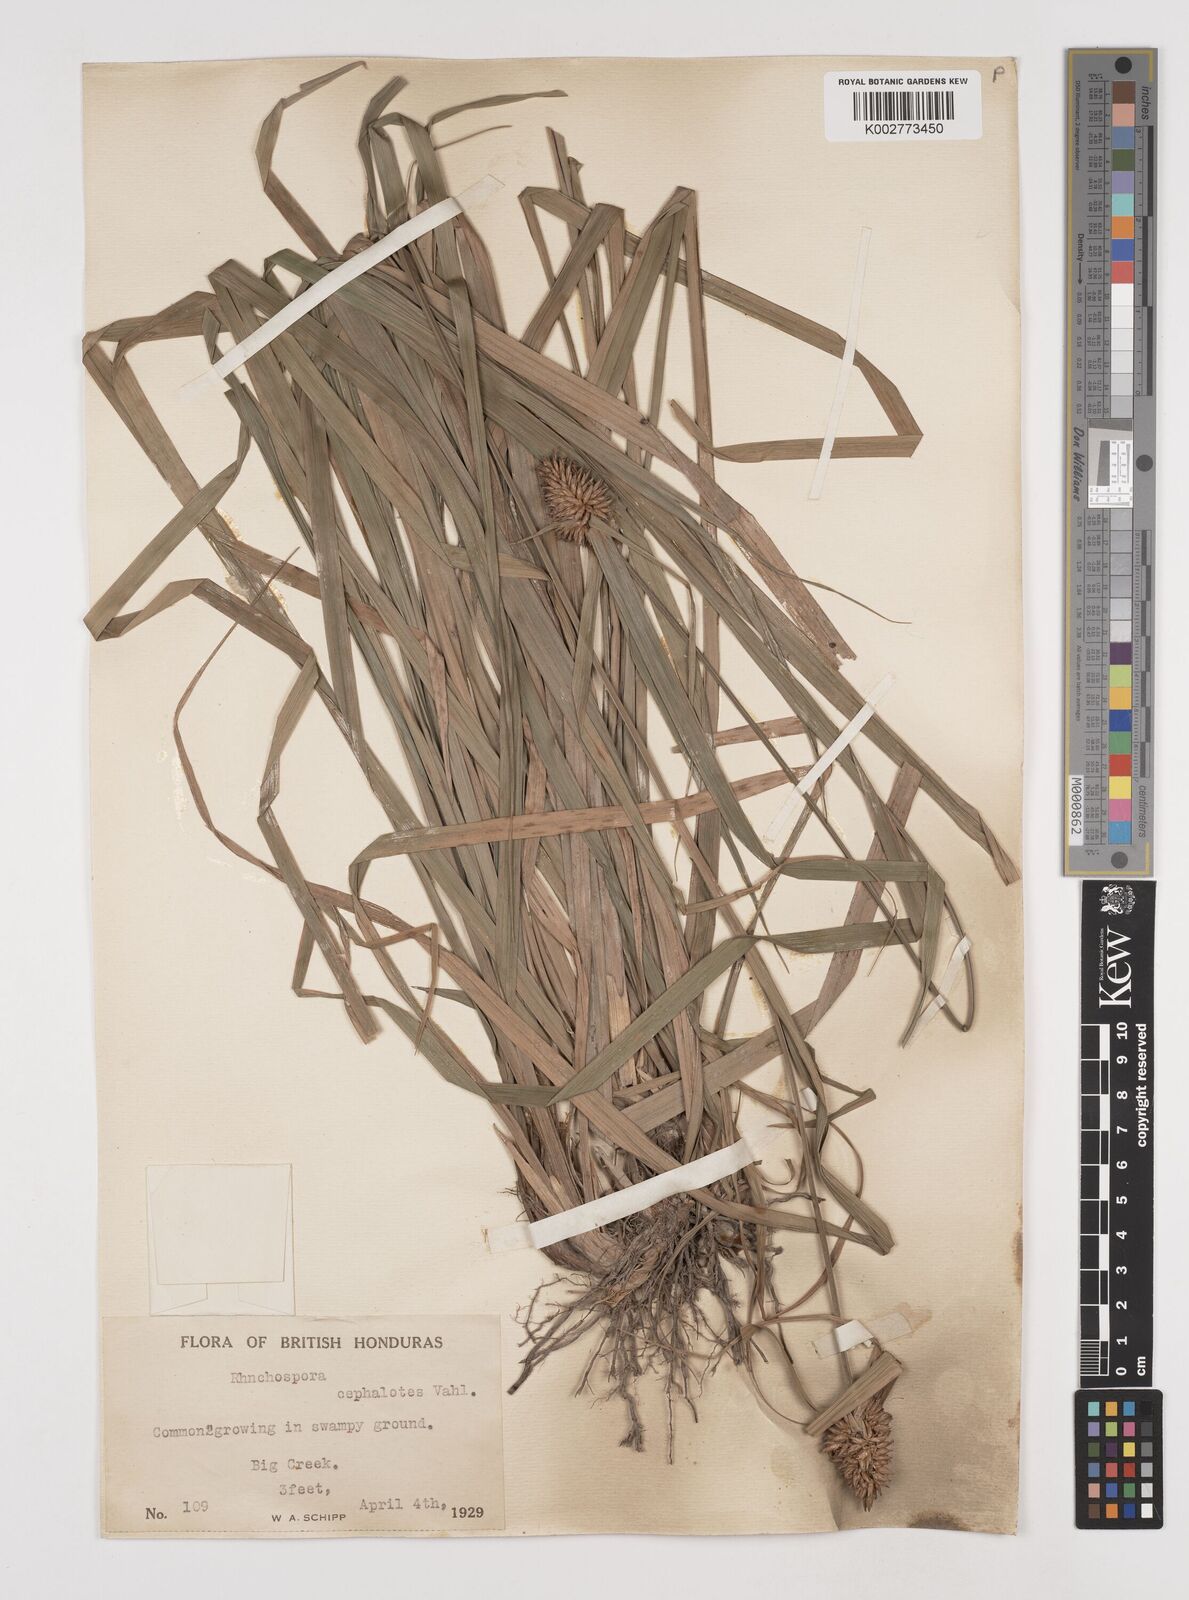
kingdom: Plantae
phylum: Tracheophyta
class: Liliopsida
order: Poales
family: Cyperaceae
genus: Rhynchospora
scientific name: Rhynchospora cephalotes
